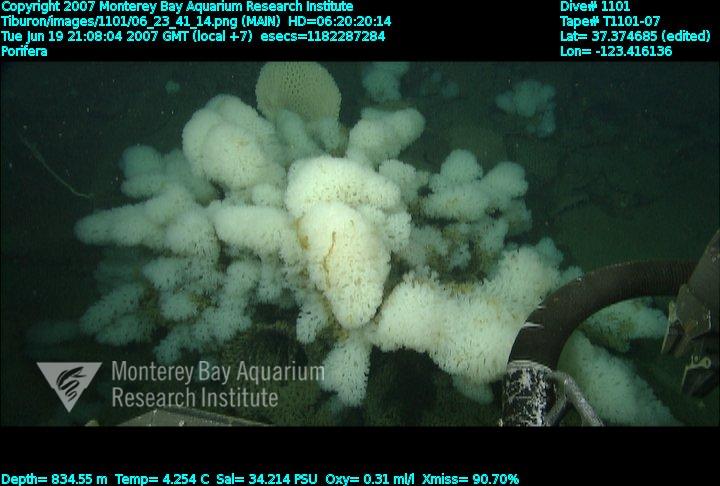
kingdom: Animalia
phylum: Porifera
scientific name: Porifera
